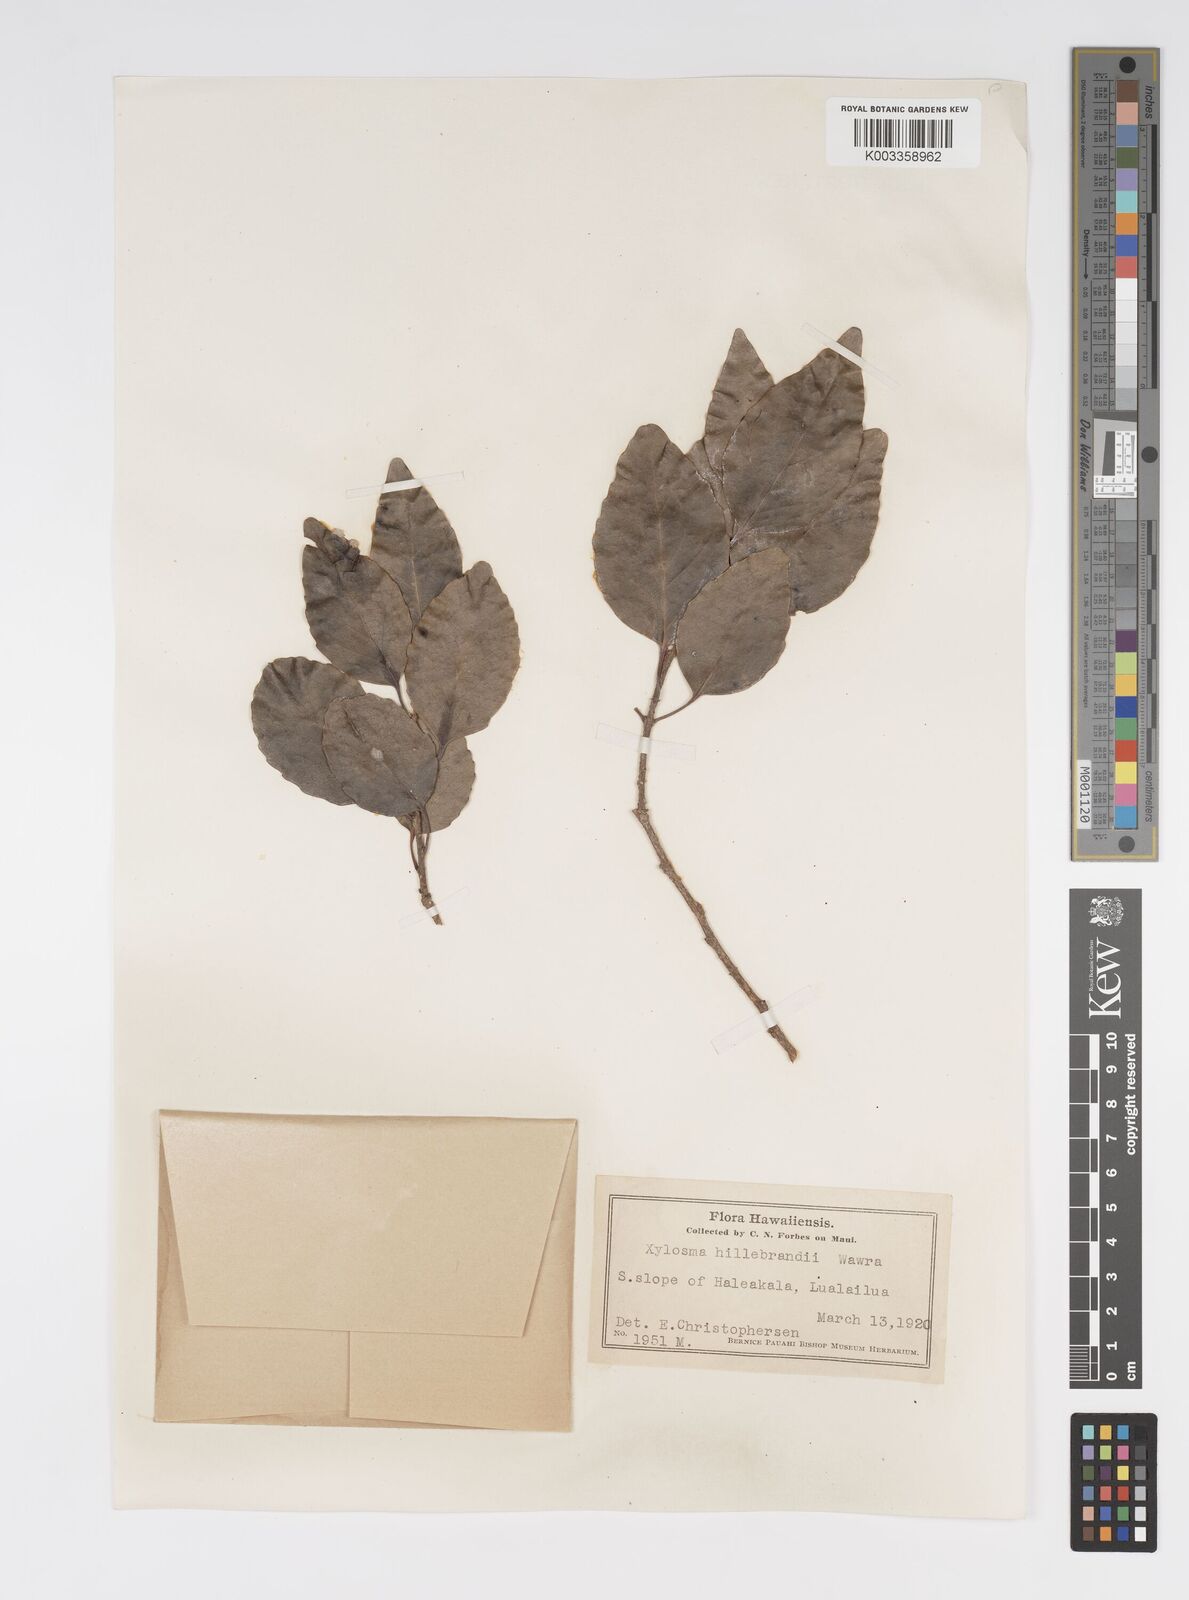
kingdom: Plantae
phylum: Tracheophyta
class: Magnoliopsida
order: Malpighiales
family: Salicaceae
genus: Xylosma
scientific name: Xylosma hawaiense
